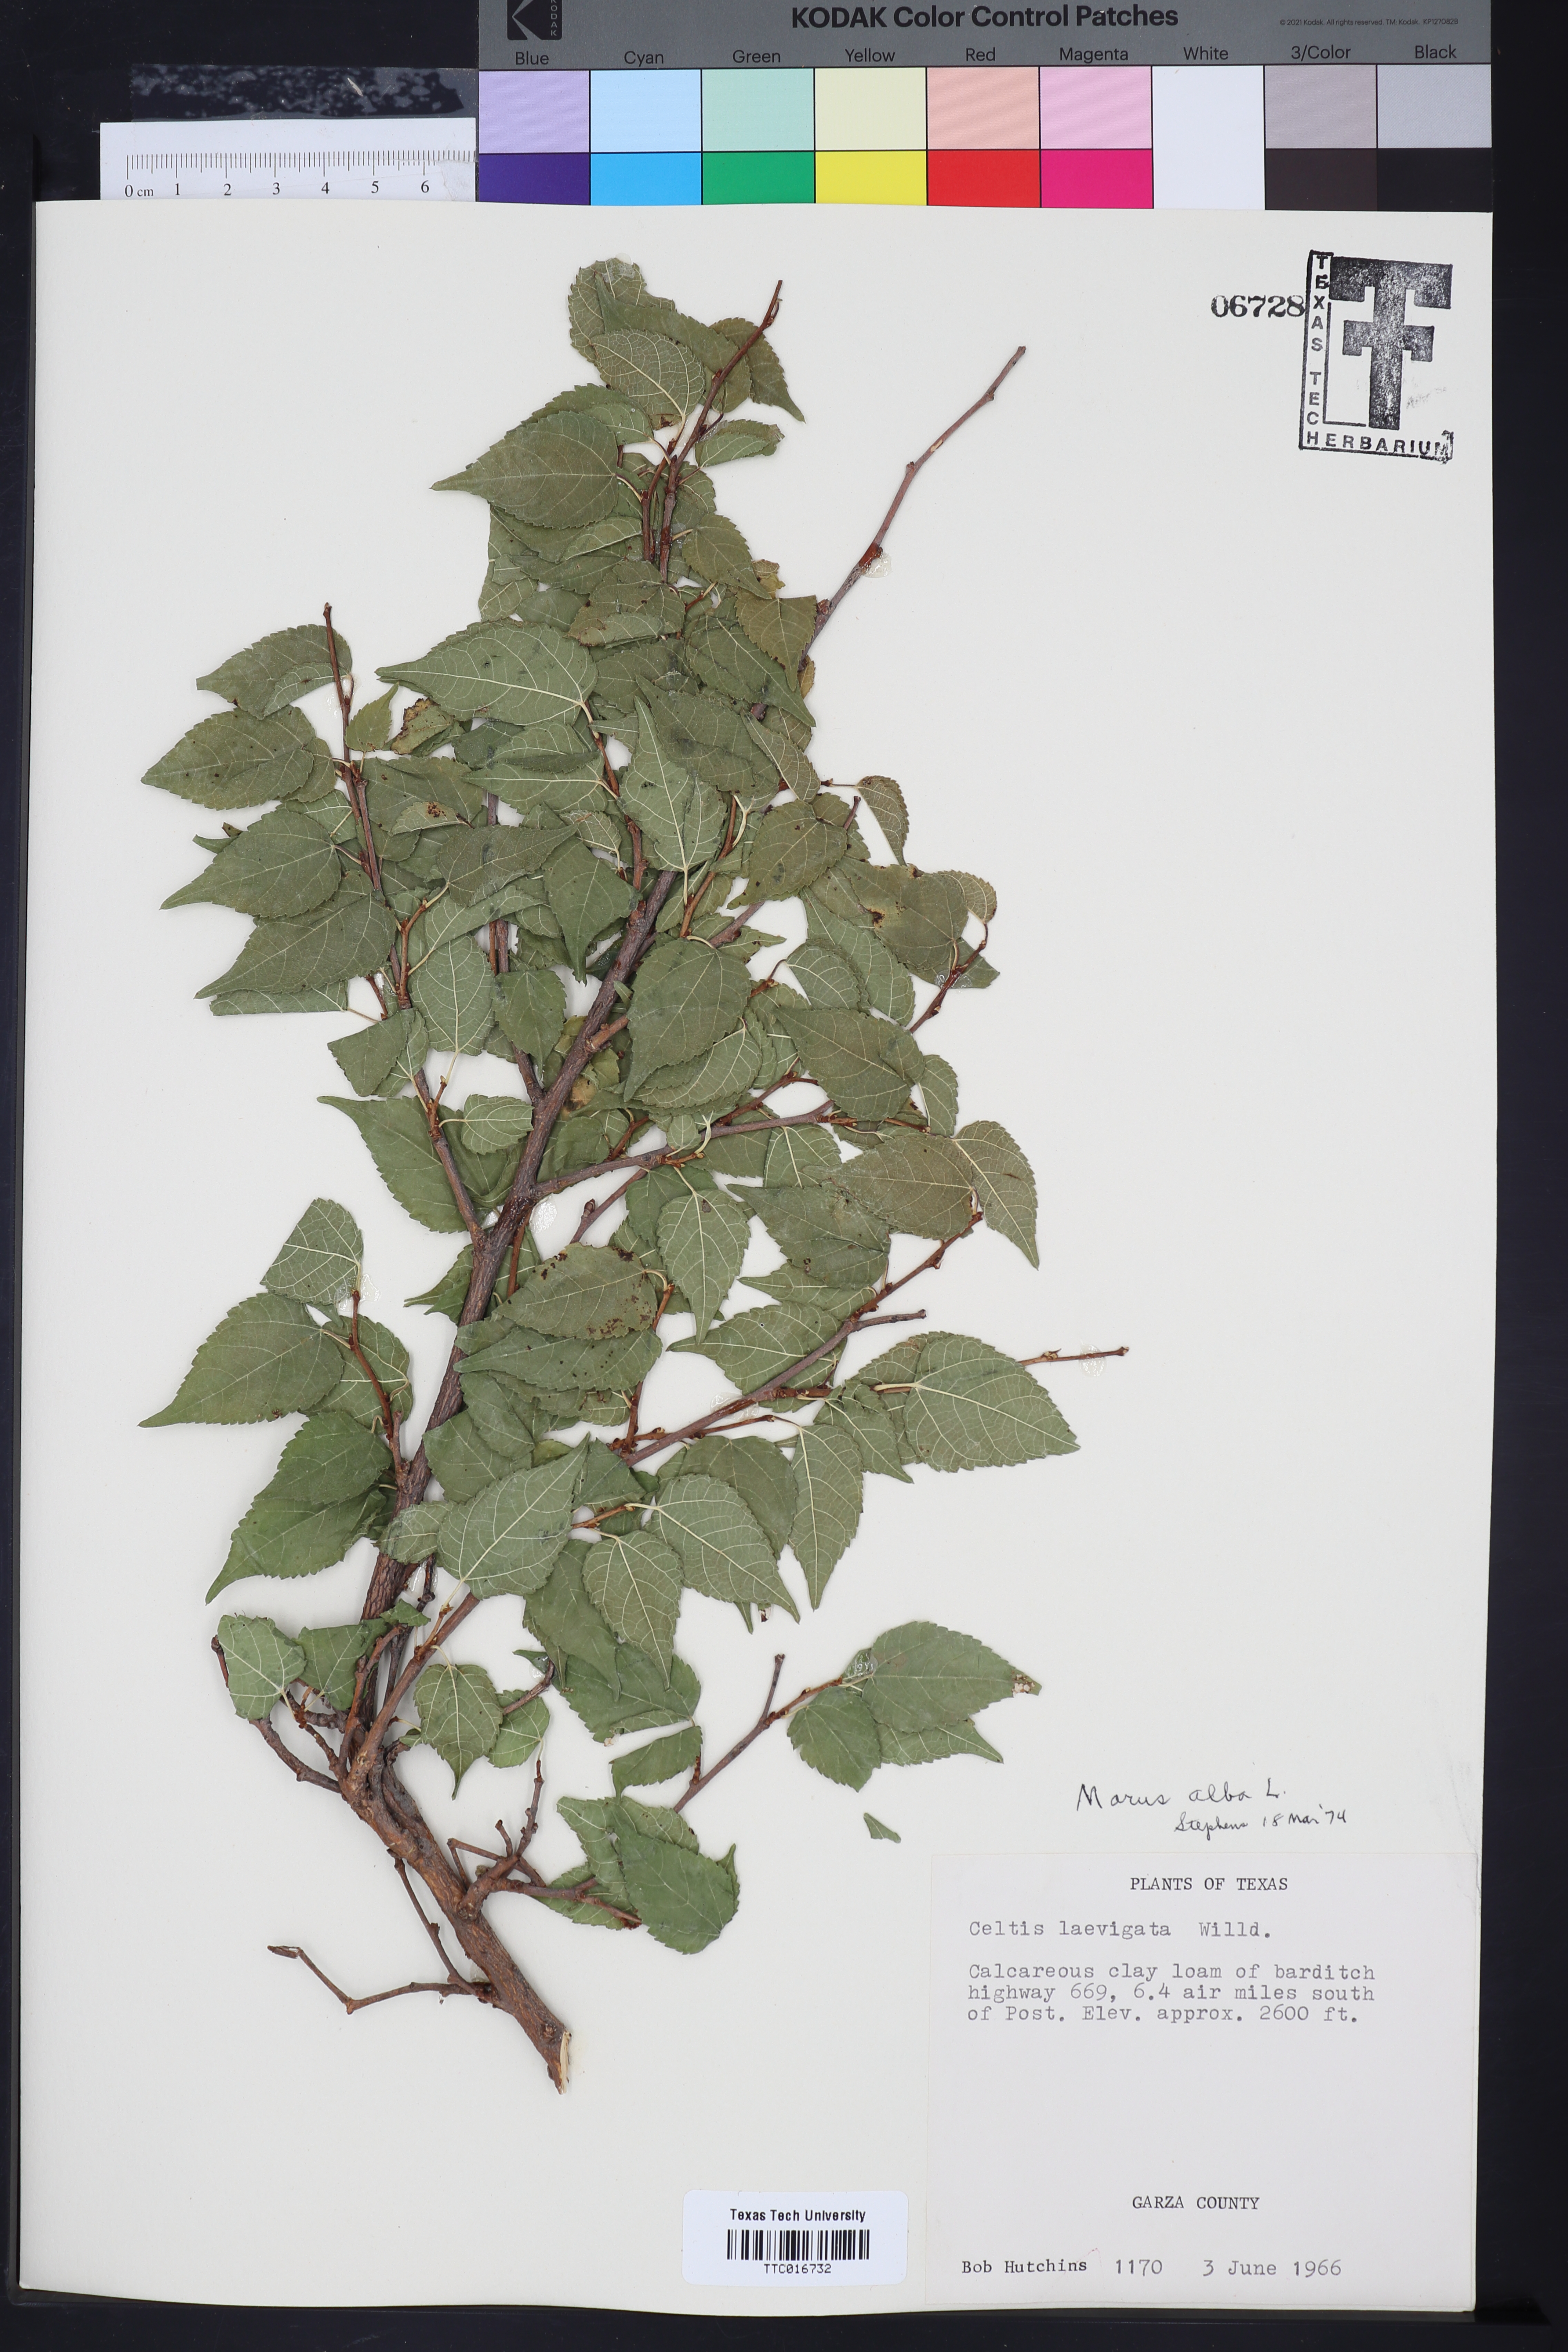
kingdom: Plantae
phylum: Tracheophyta
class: Magnoliopsida
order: Rosales
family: Moraceae
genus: Morus
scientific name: Morus alba
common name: White mulberry
